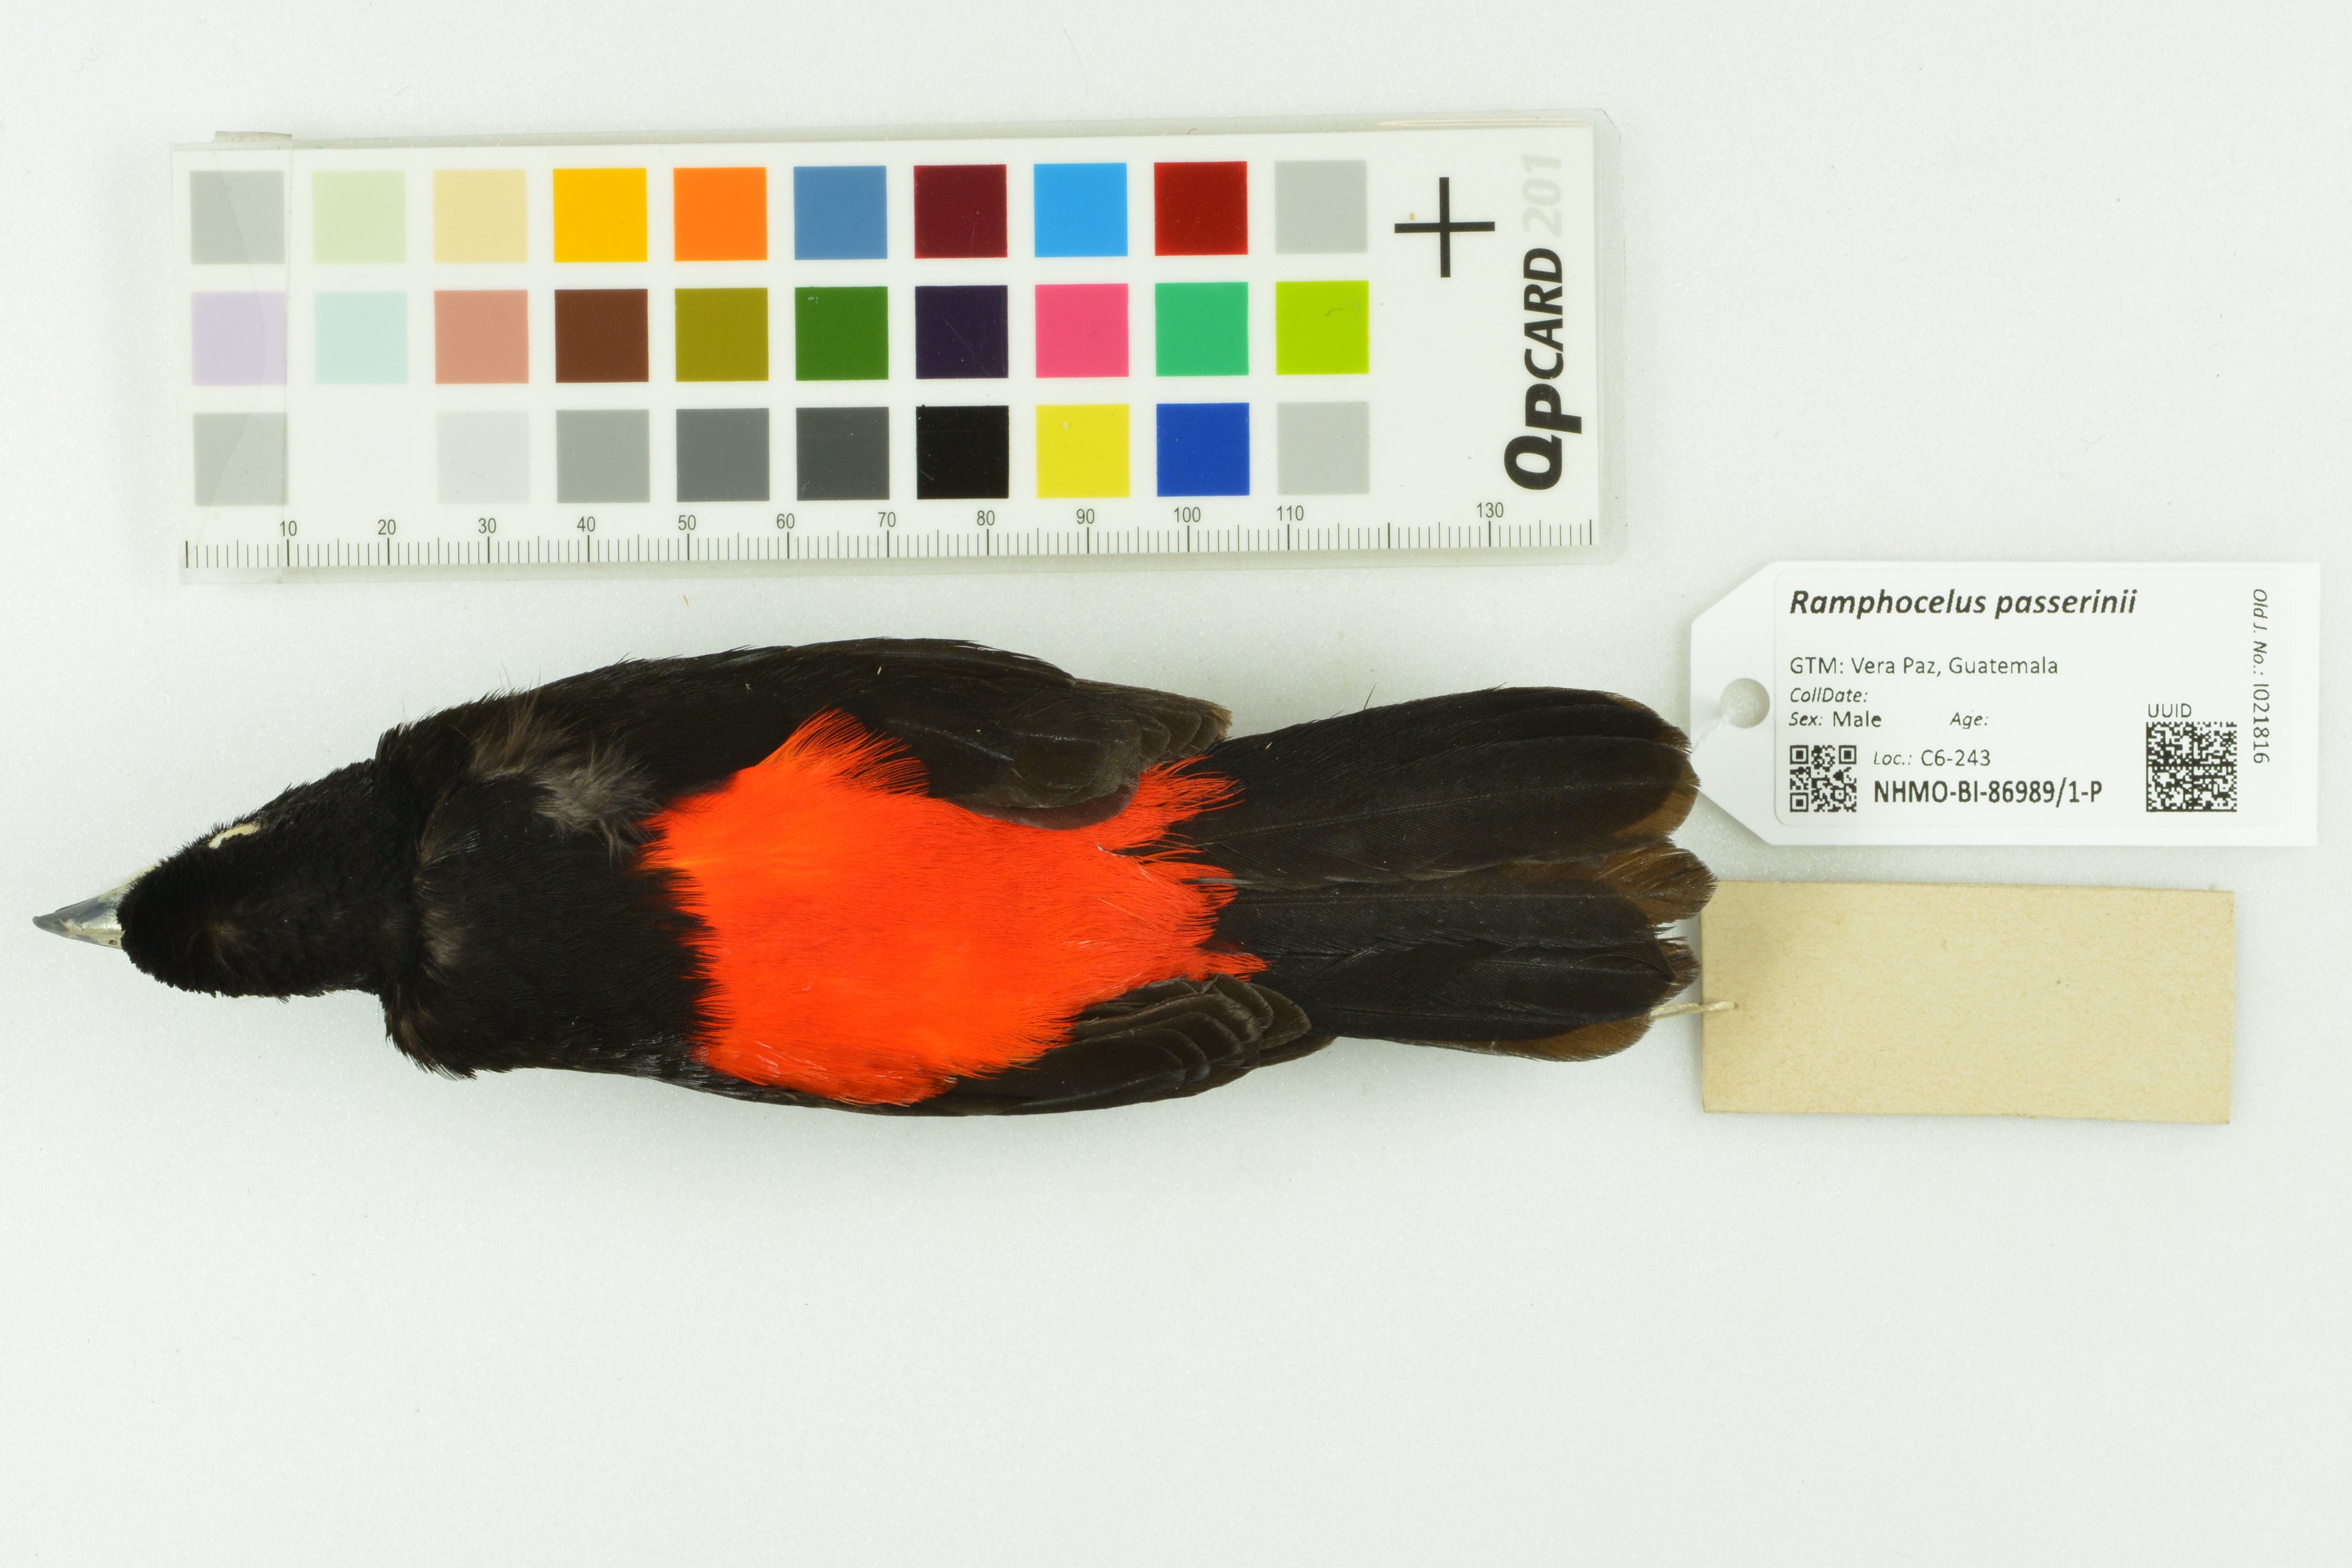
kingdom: Animalia
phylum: Chordata
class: Aves
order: Passeriformes
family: Thraupidae
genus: Ramphocelus
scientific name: Ramphocelus passerinii
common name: Passerini's tanager
